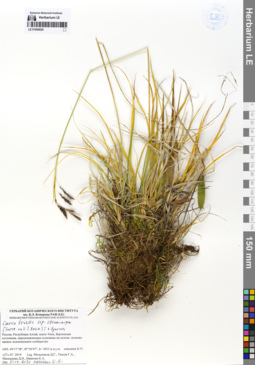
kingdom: Plantae
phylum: Tracheophyta
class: Liliopsida
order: Poales
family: Cyperaceae
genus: Carex
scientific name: Carex stenocarpa
